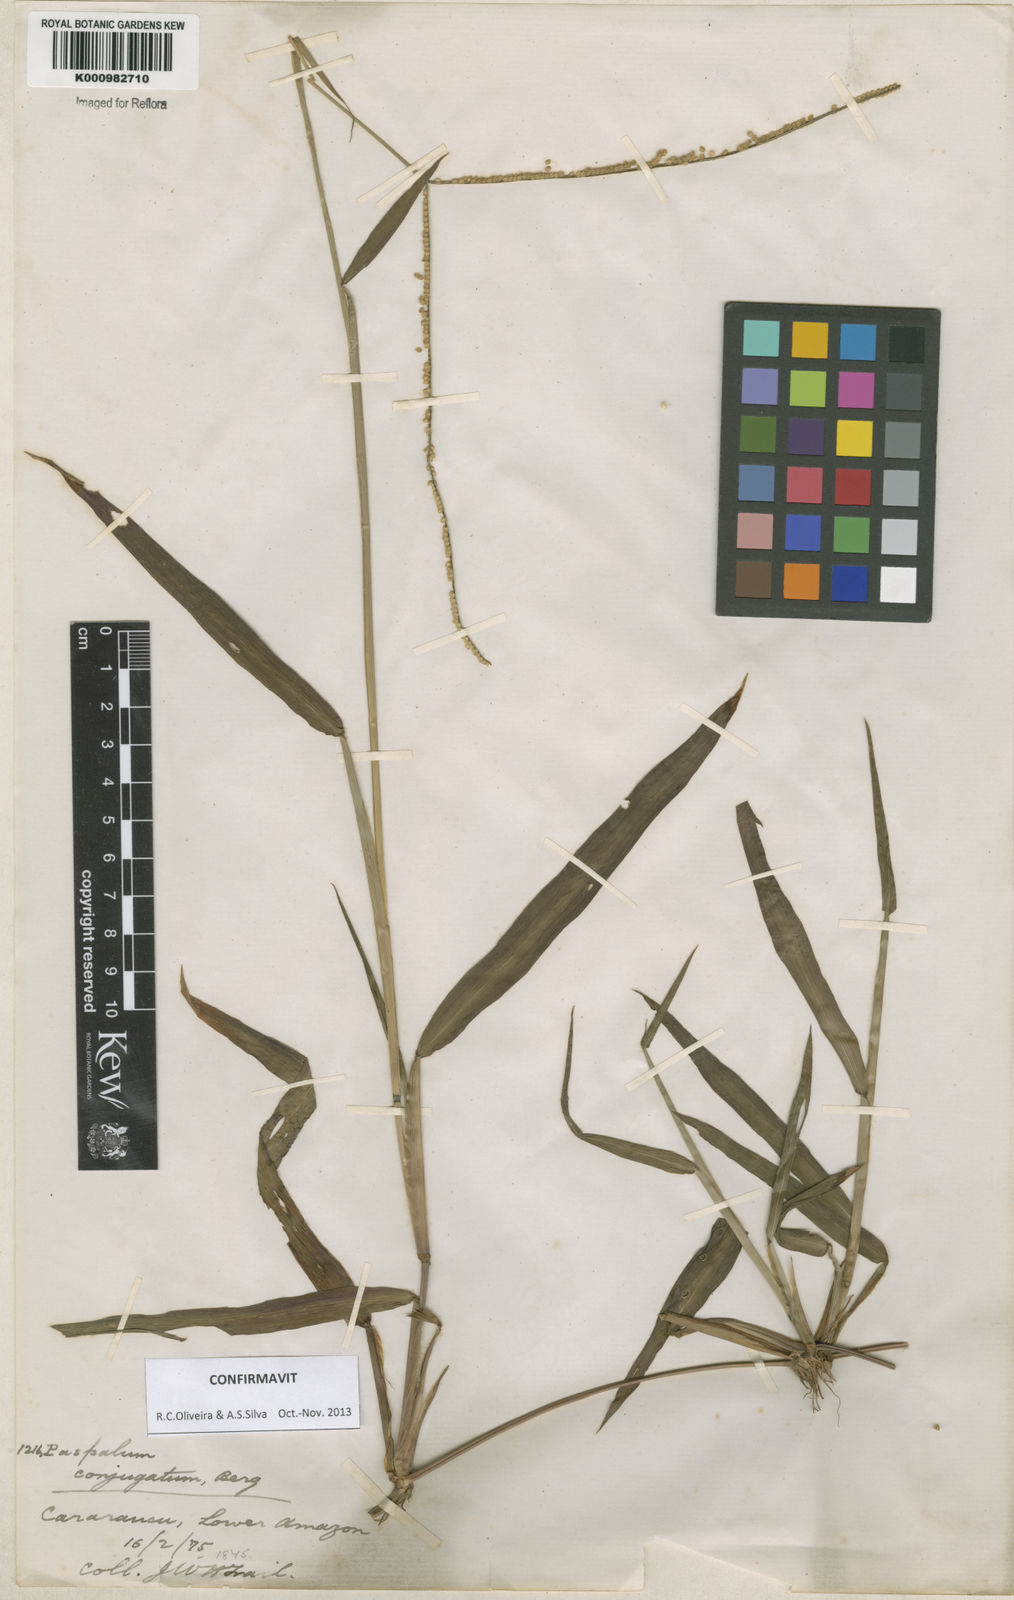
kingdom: Plantae
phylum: Tracheophyta
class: Liliopsida
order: Poales
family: Poaceae
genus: Paspalum
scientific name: Paspalum conjugatum
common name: Hilograss
